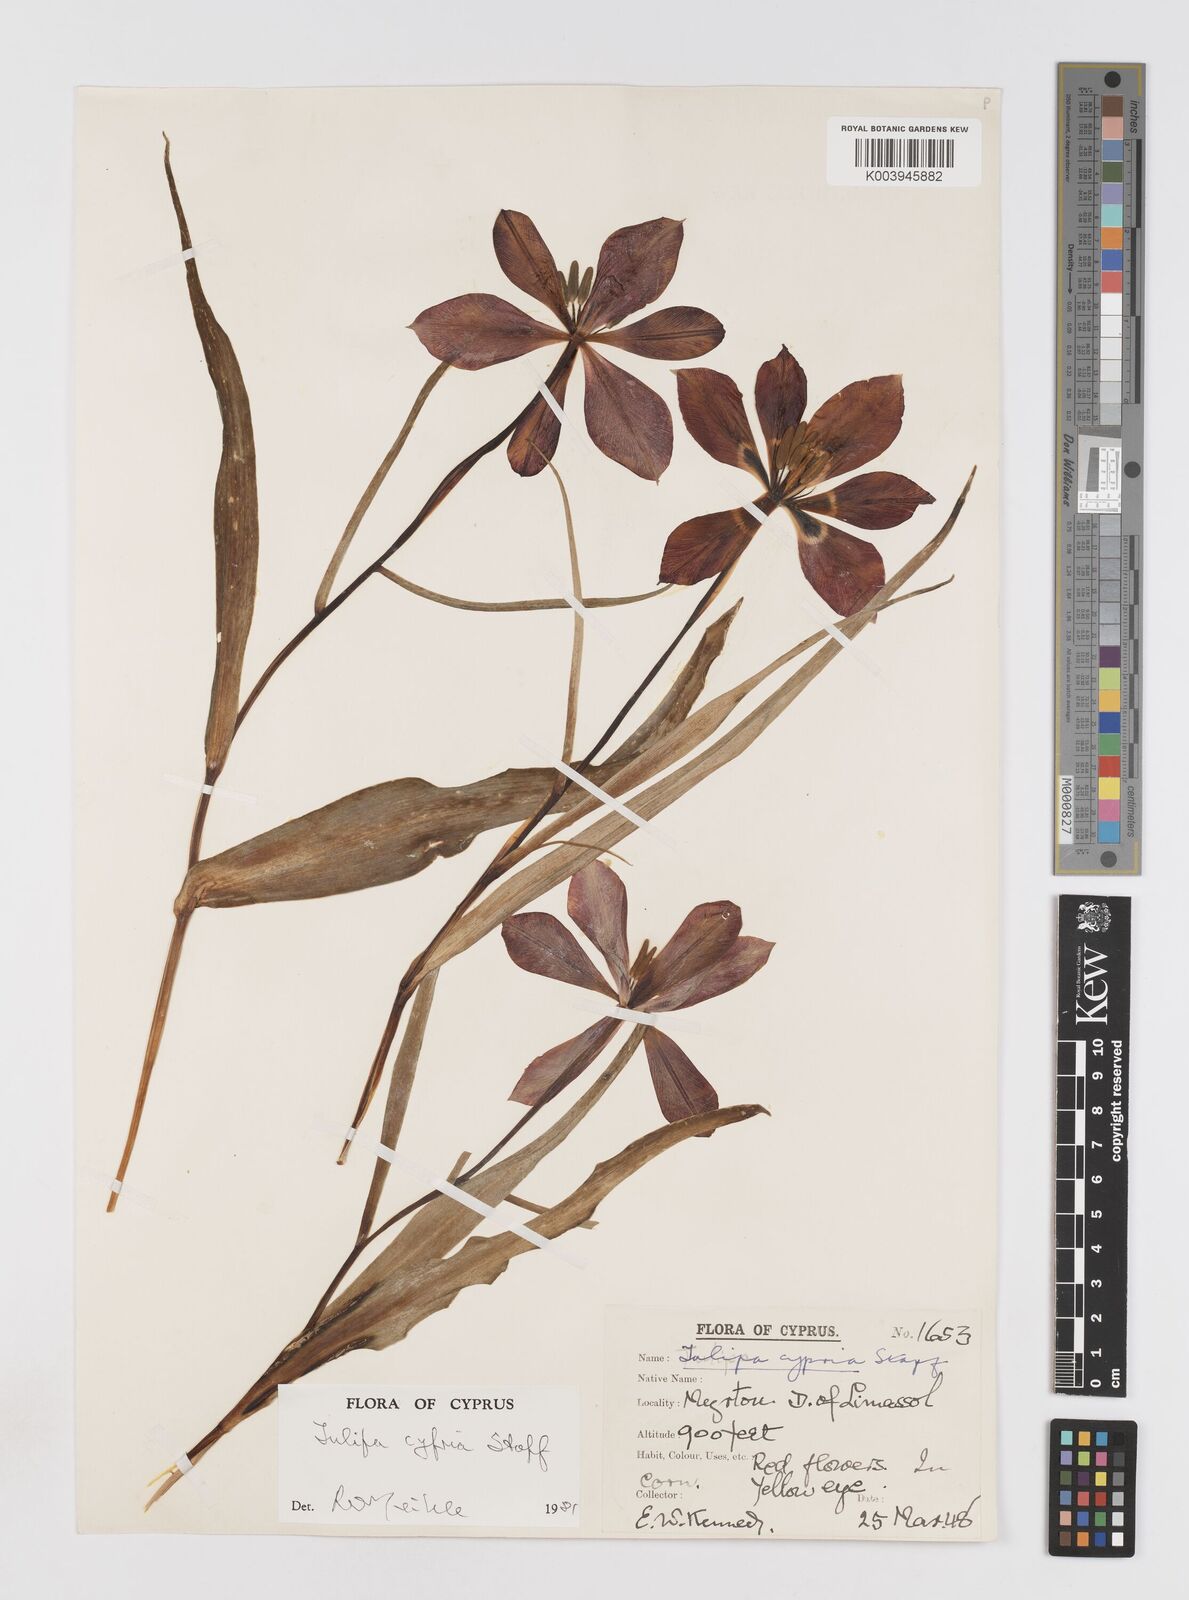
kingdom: Plantae
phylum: Tracheophyta
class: Liliopsida
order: Liliales
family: Liliaceae
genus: Tulipa
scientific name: Tulipa cypria
